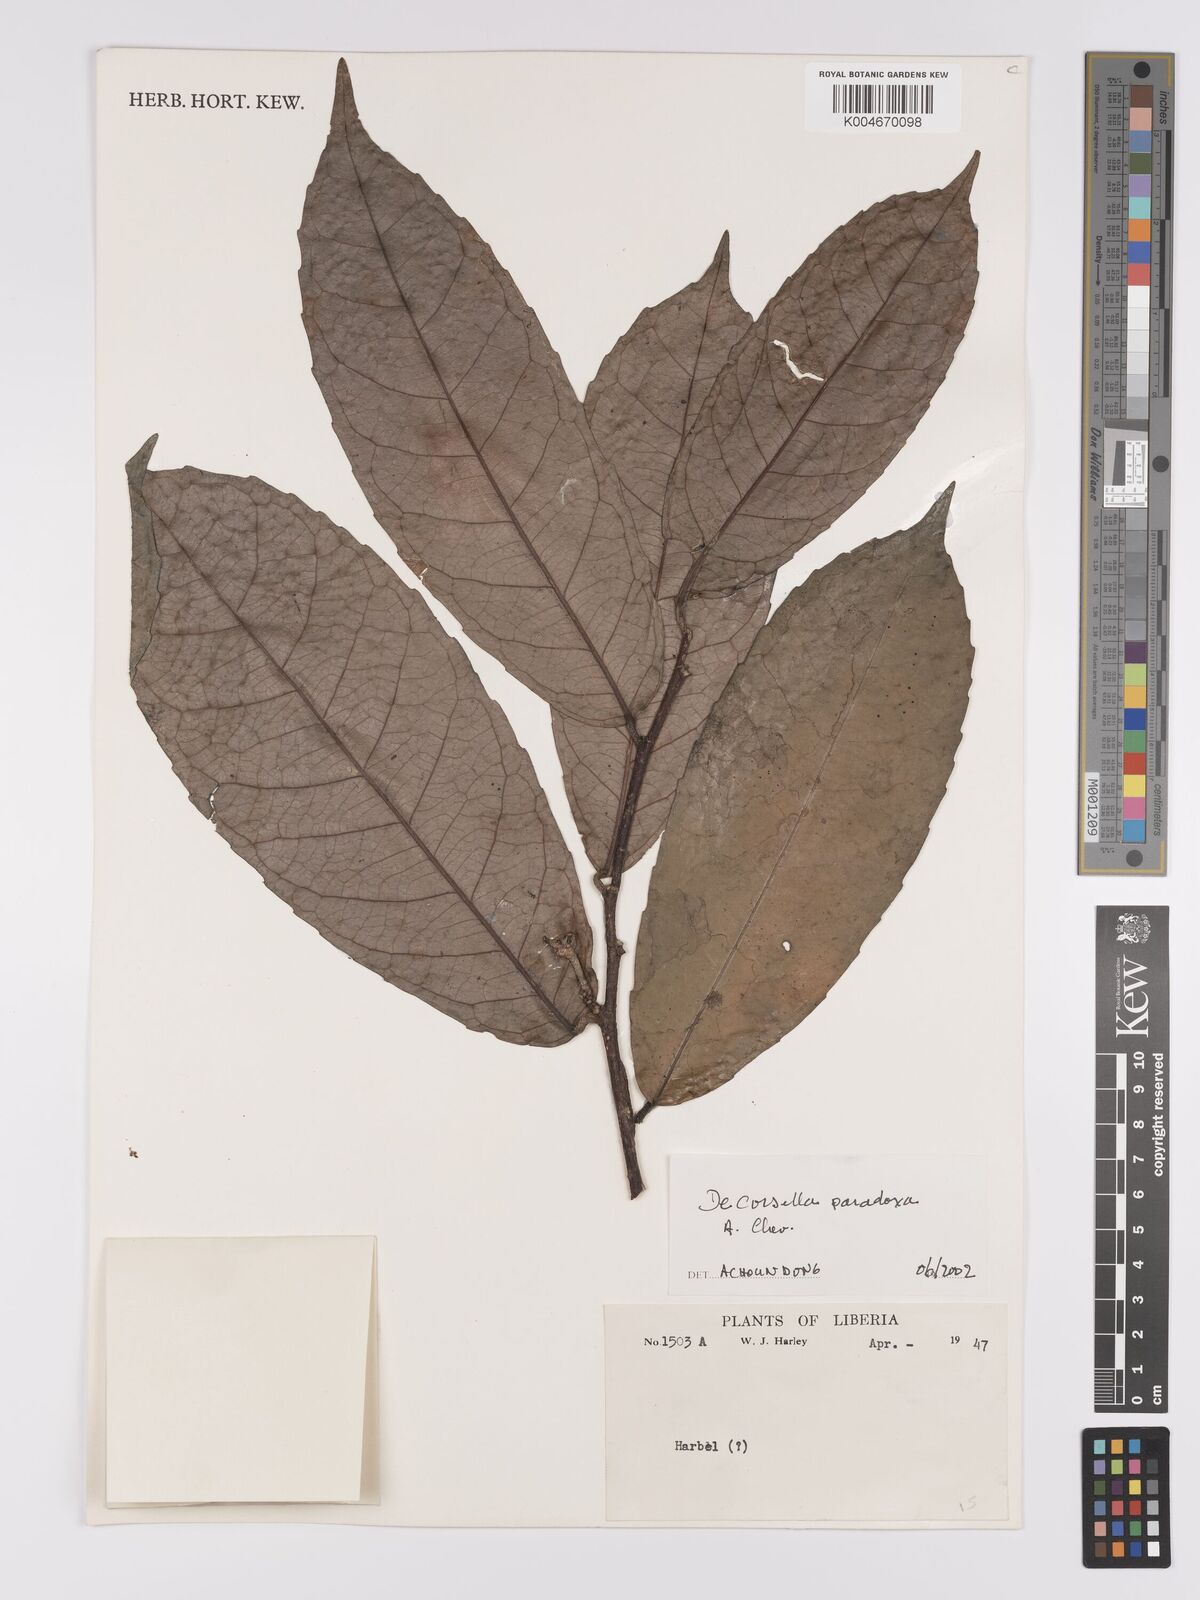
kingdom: Plantae
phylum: Tracheophyta
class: Magnoliopsida
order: Malpighiales
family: Violaceae
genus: Decorsella
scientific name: Decorsella paradoxa
